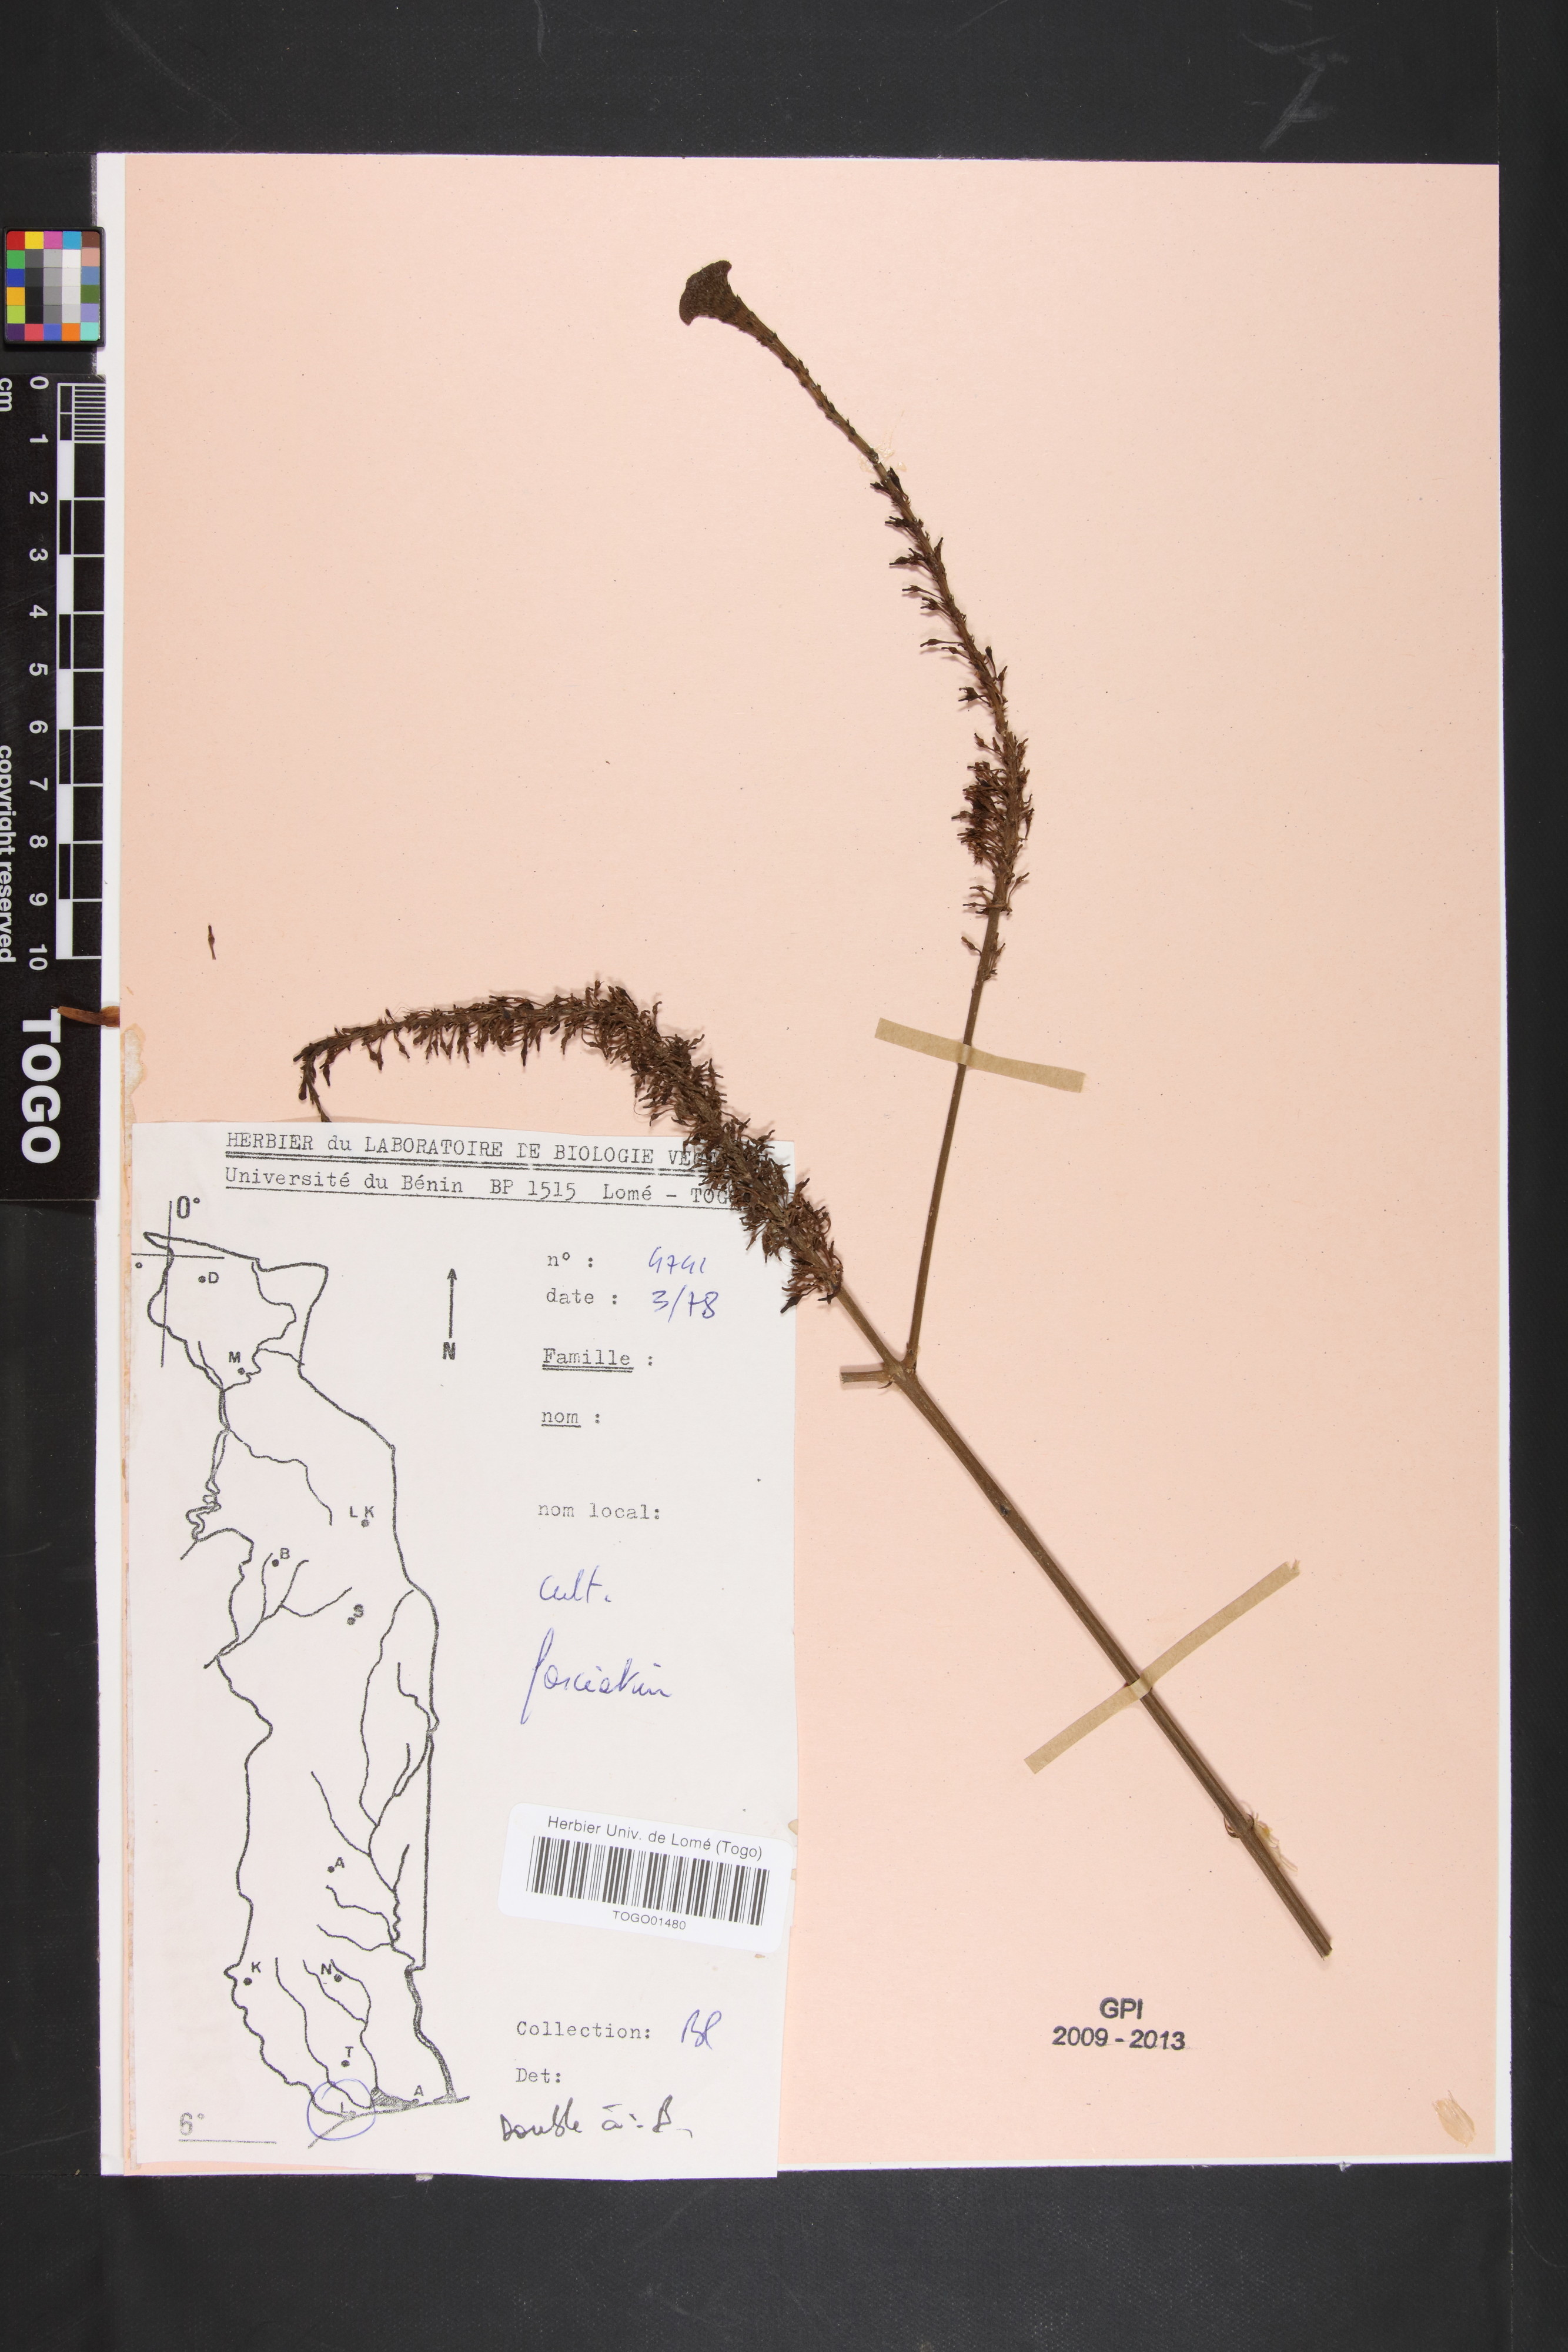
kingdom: Plantae
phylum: Tracheophyta
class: Magnoliopsida
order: Lamiales
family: Acanthaceae
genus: Odontonema
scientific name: Odontonema cuspidatum
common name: Mottled toothedthread
